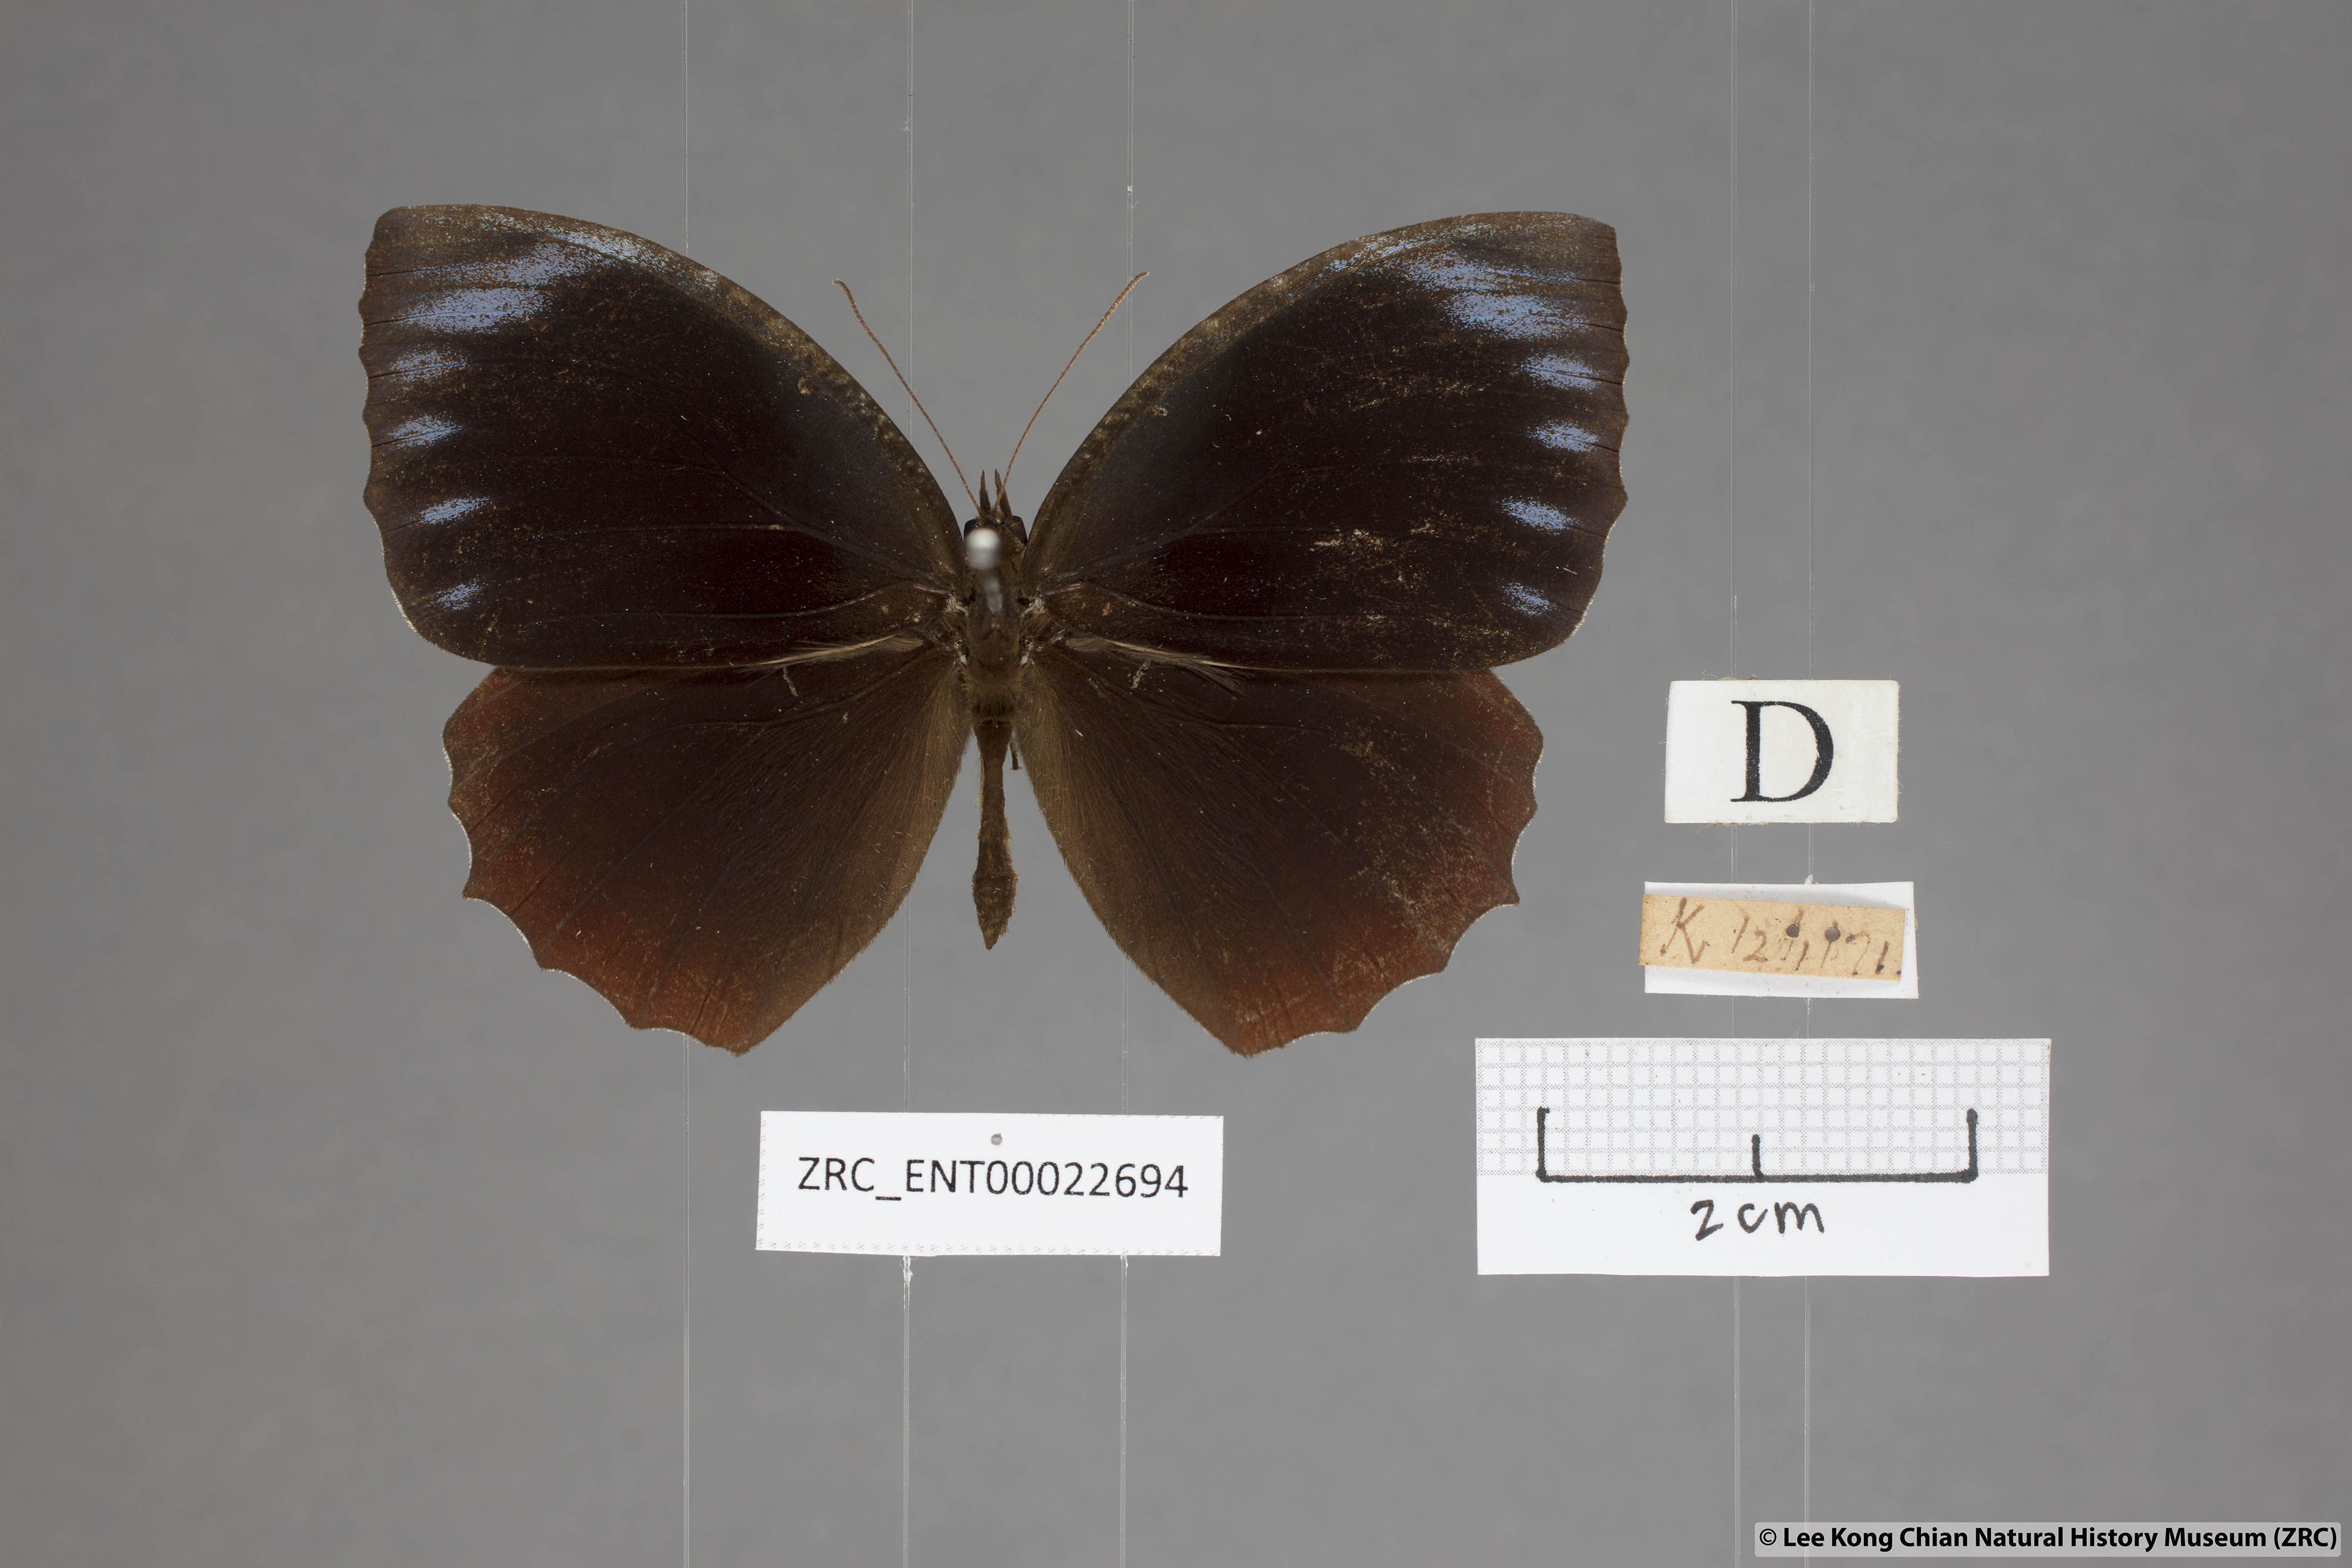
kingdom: Animalia
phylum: Arthropoda
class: Insecta
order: Lepidoptera
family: Nymphalidae
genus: Elymnias
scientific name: Elymnias hypermnestra
